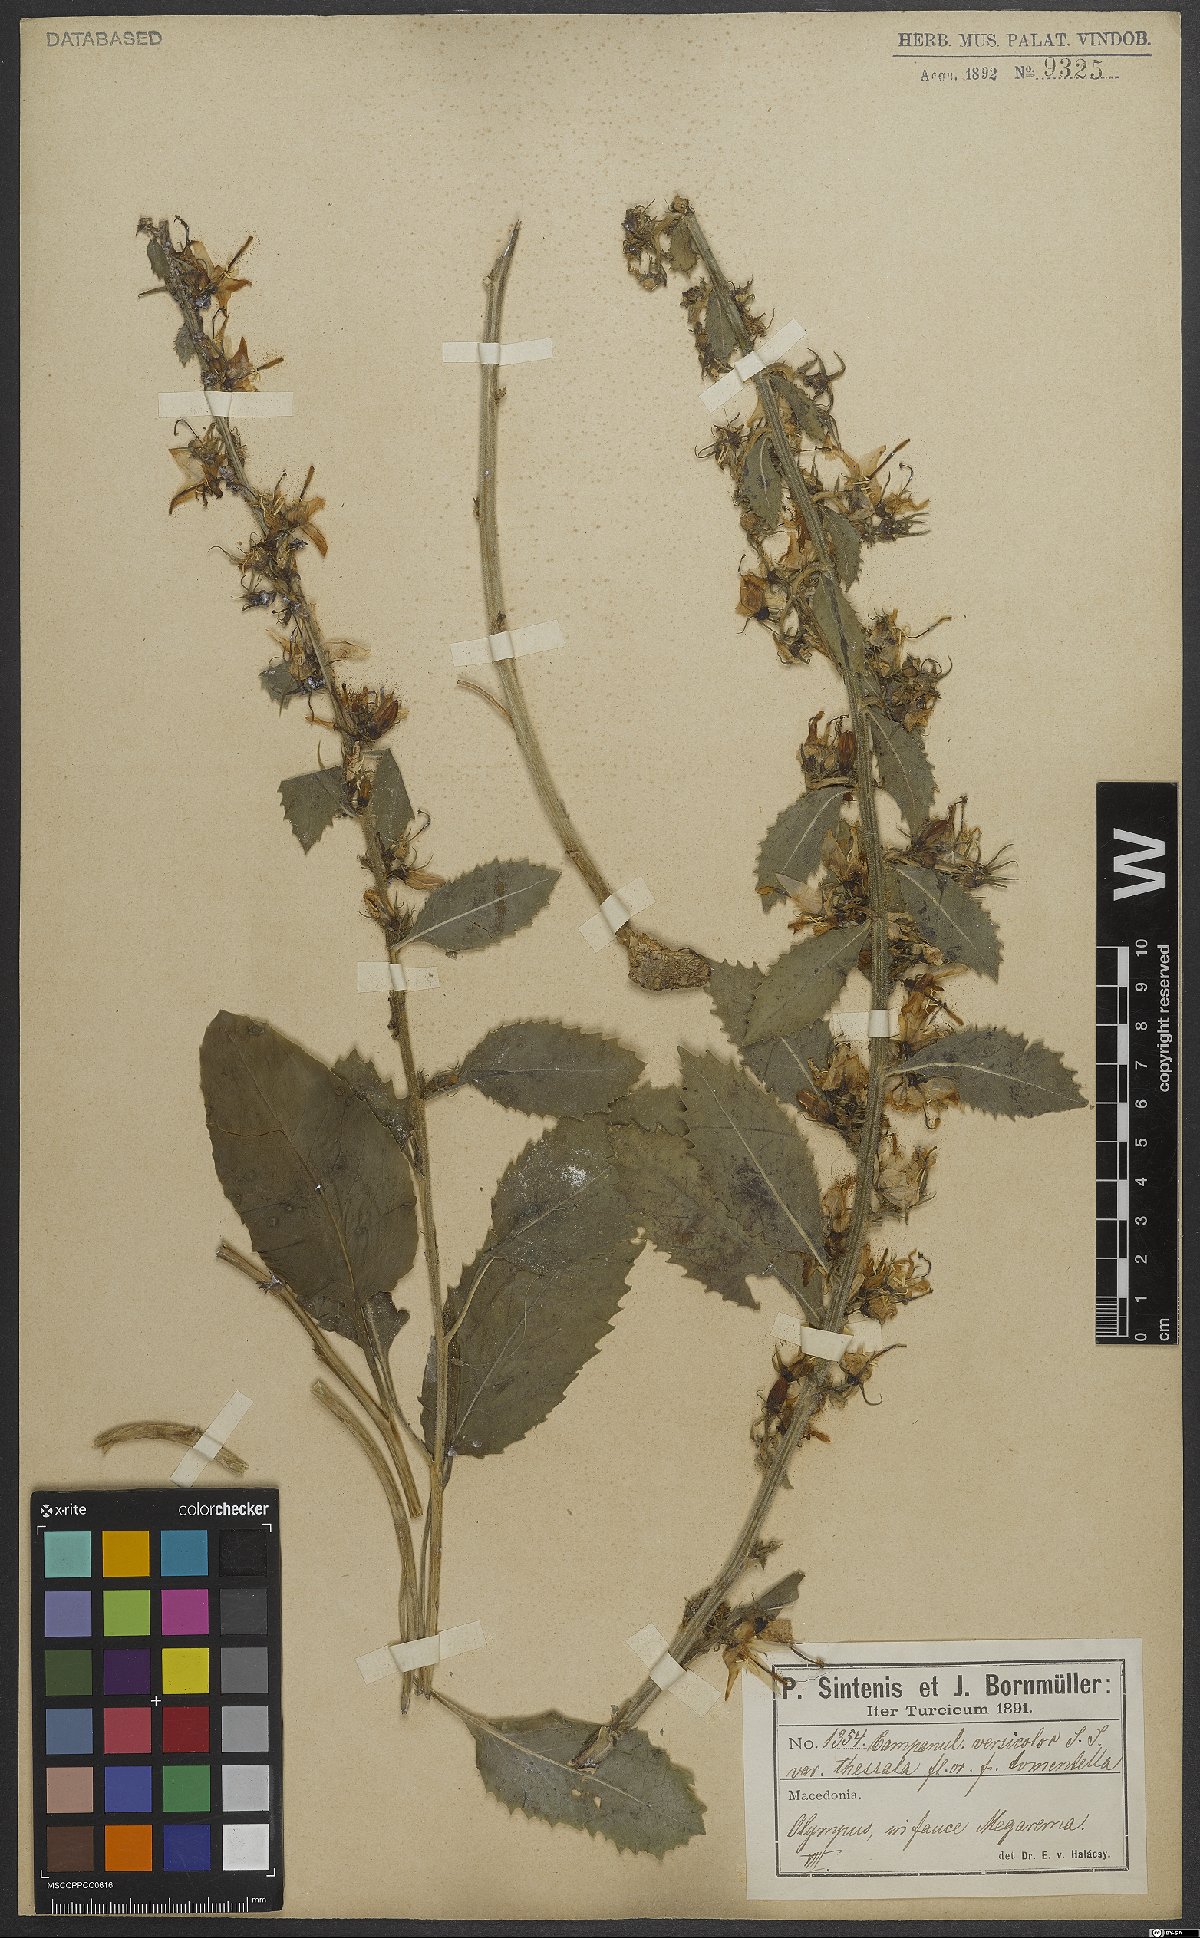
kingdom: Plantae
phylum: Tracheophyta
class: Magnoliopsida
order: Asterales
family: Campanulaceae
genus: Campanula
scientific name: Campanula versicolor
